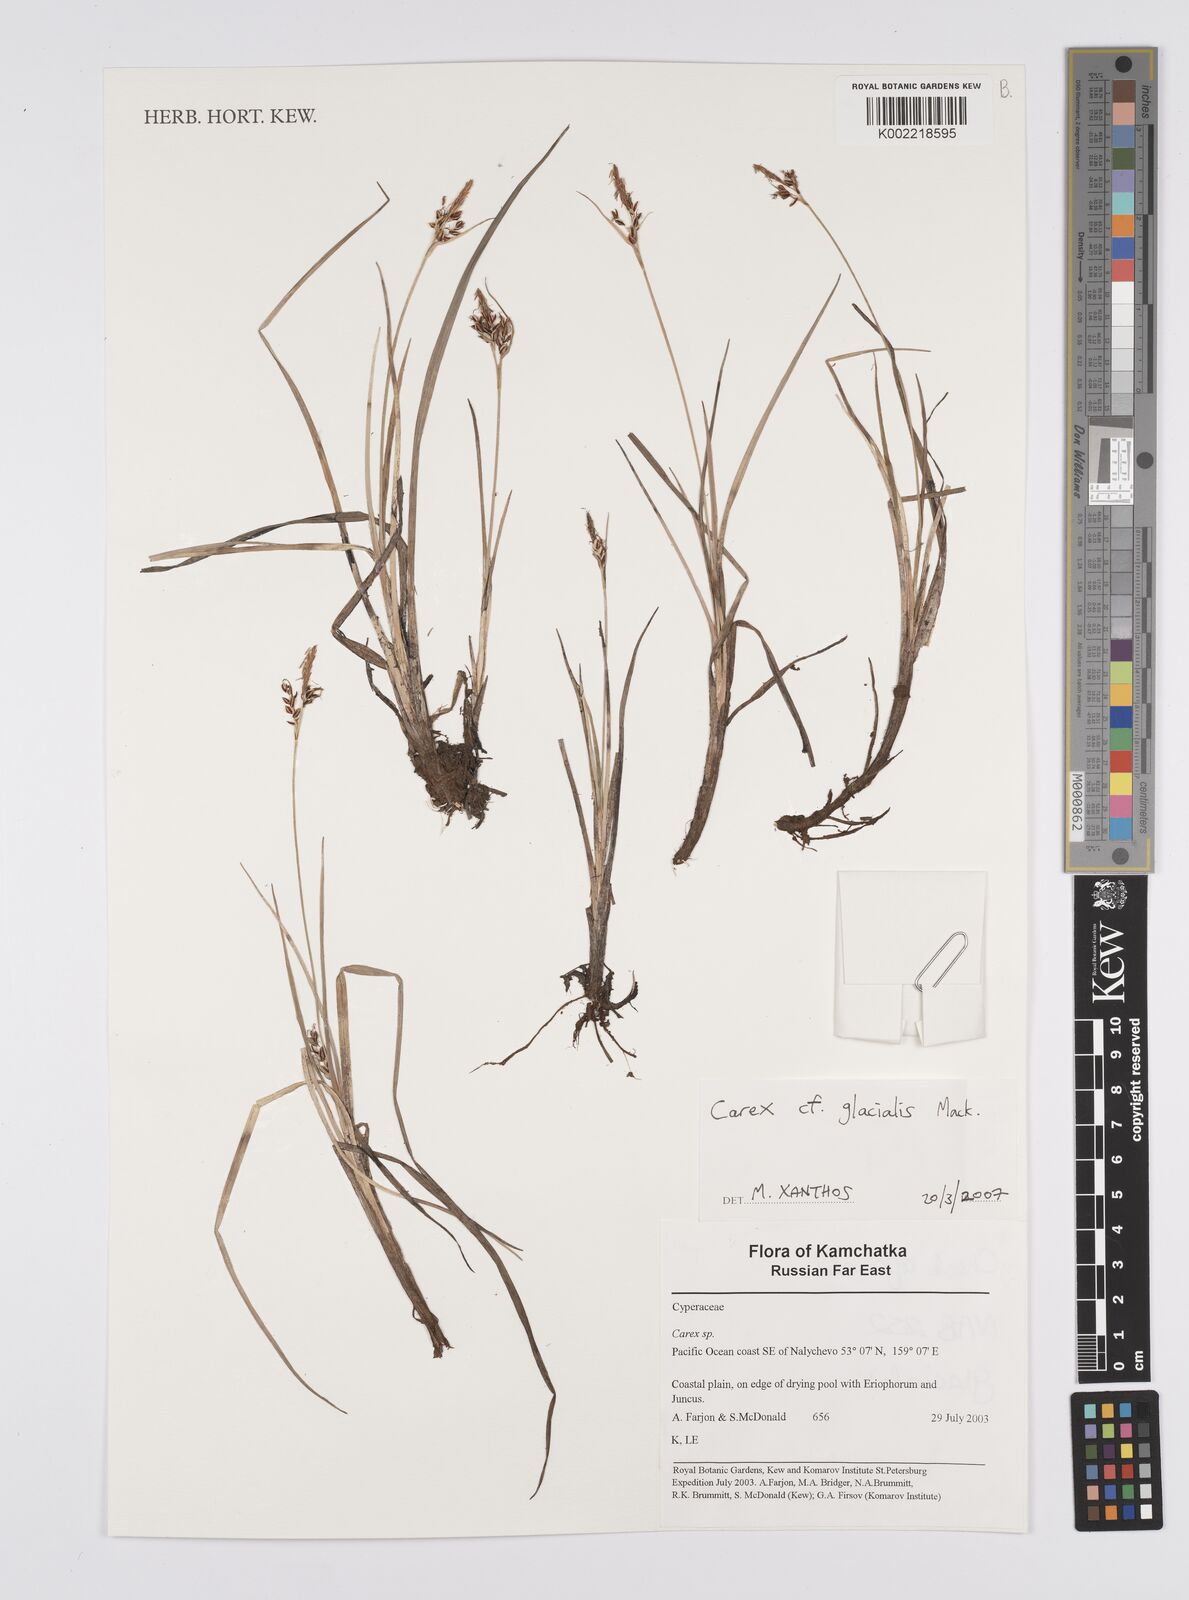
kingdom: Plantae
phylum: Tracheophyta
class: Liliopsida
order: Poales
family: Cyperaceae
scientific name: Cyperaceae
